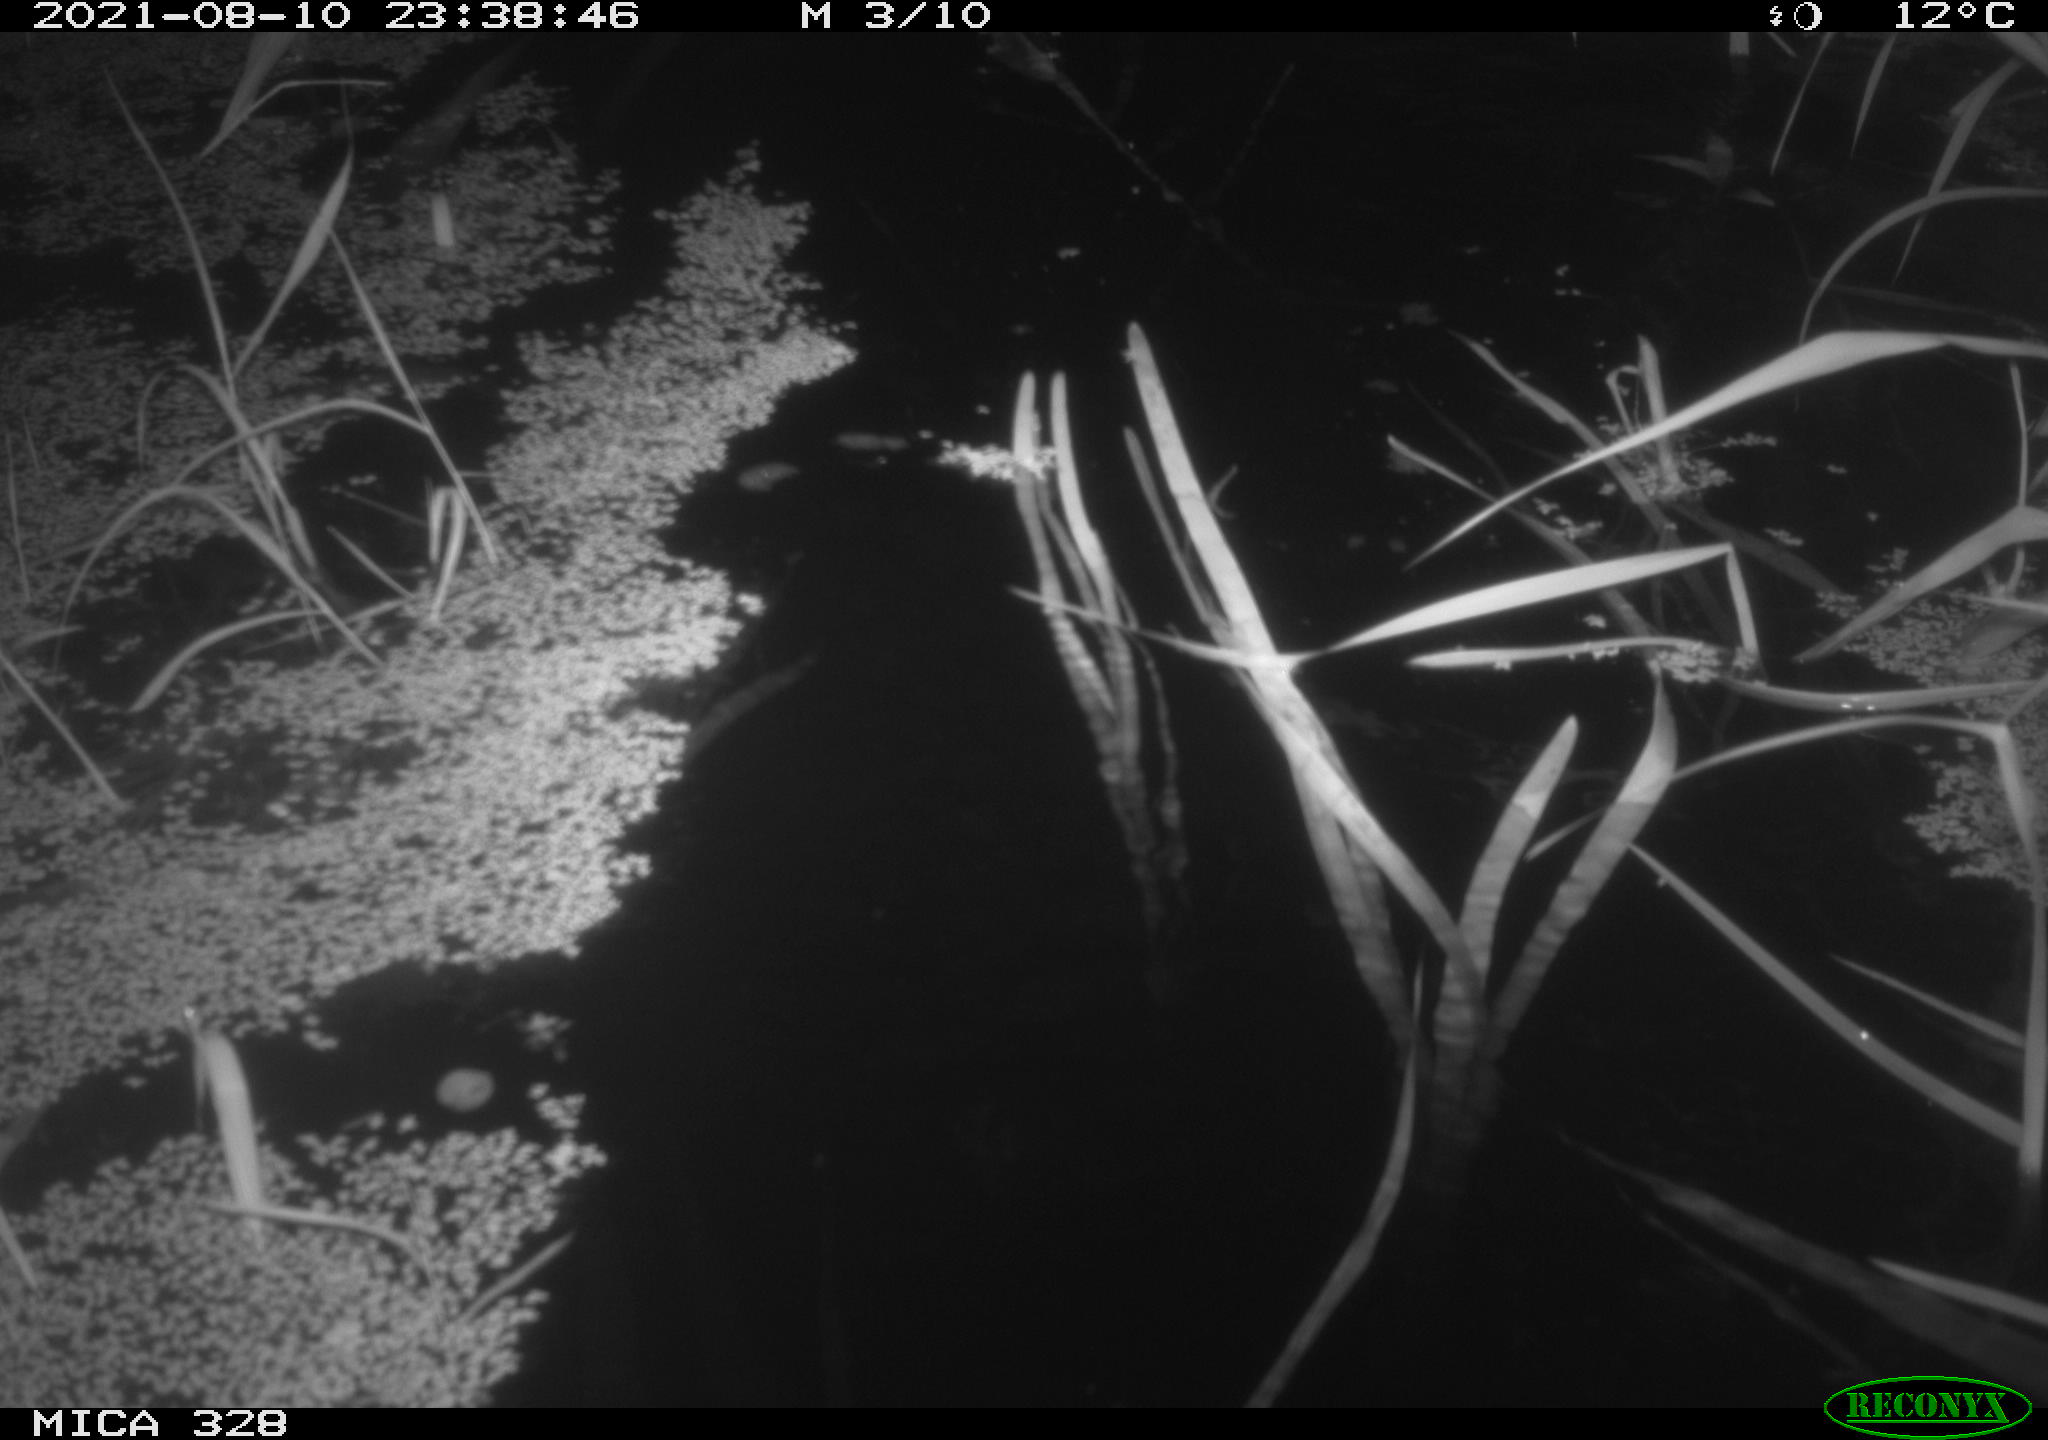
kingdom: Animalia
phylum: Chordata
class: Mammalia
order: Rodentia
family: Cricetidae
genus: Ondatra
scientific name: Ondatra zibethicus
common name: Muskrat
